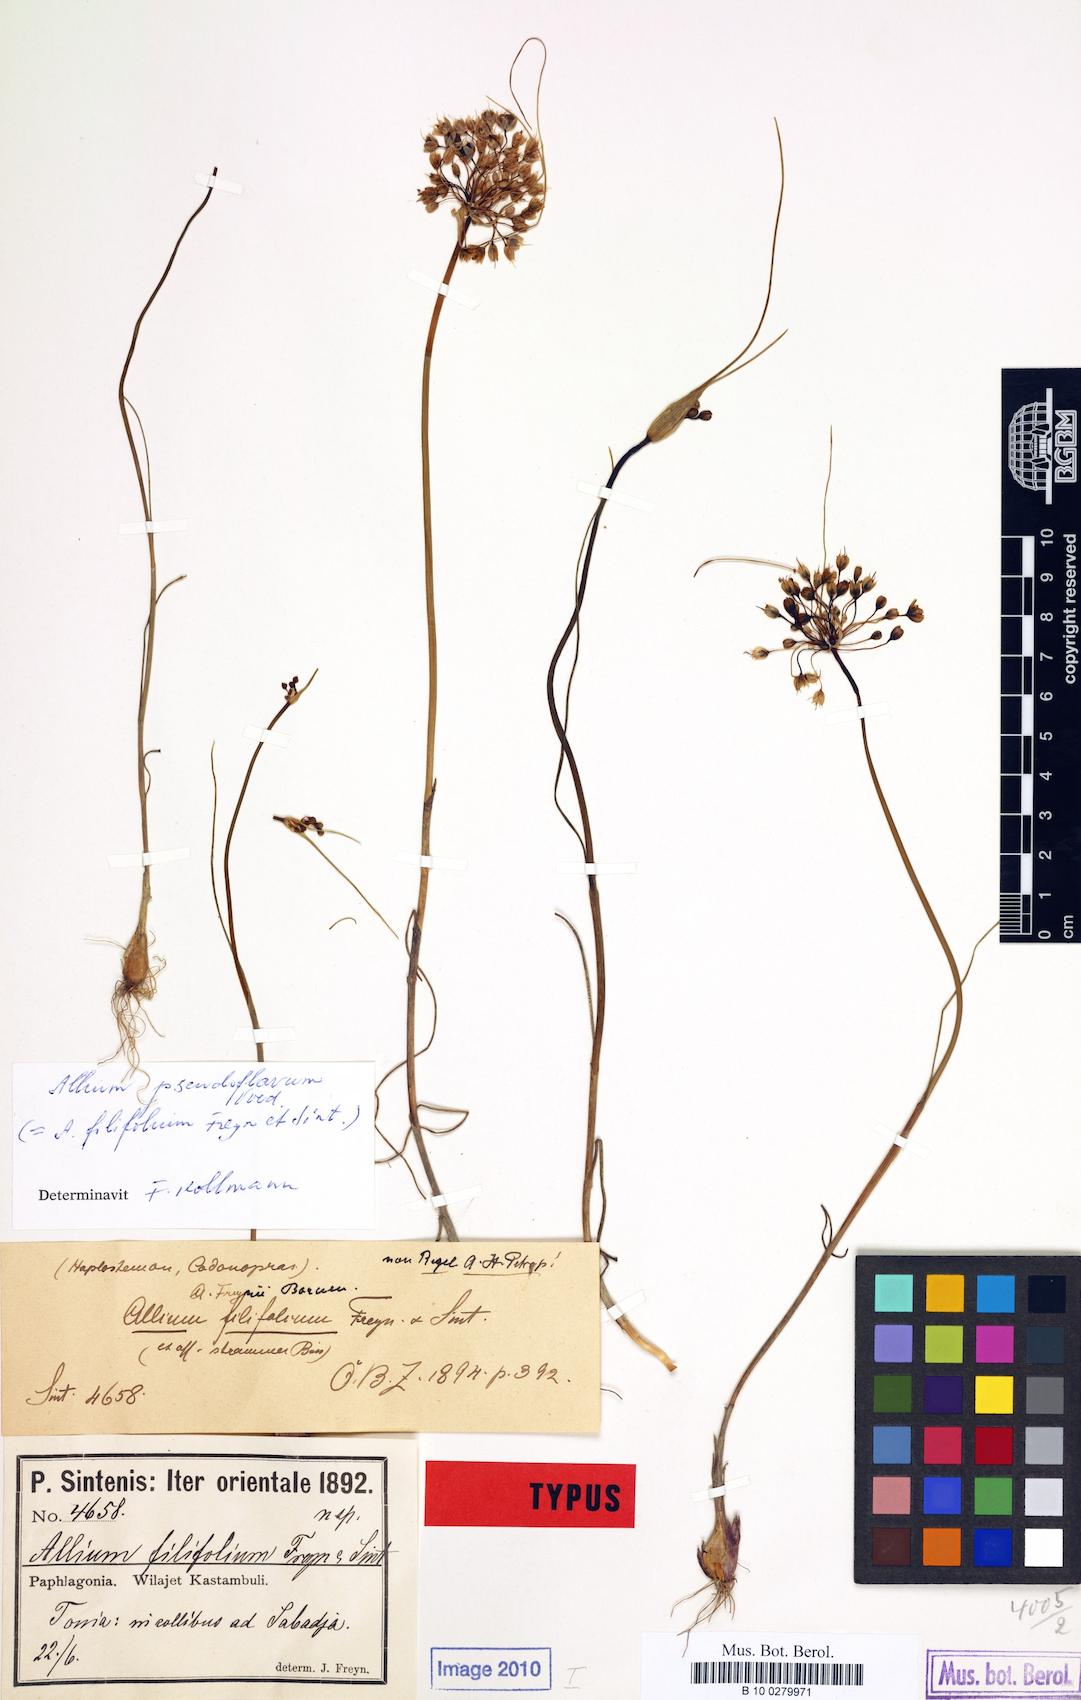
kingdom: Plantae
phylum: Tracheophyta
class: Liliopsida
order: Asparagales
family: Amaryllidaceae
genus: Allium
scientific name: Allium pseudoflavum
